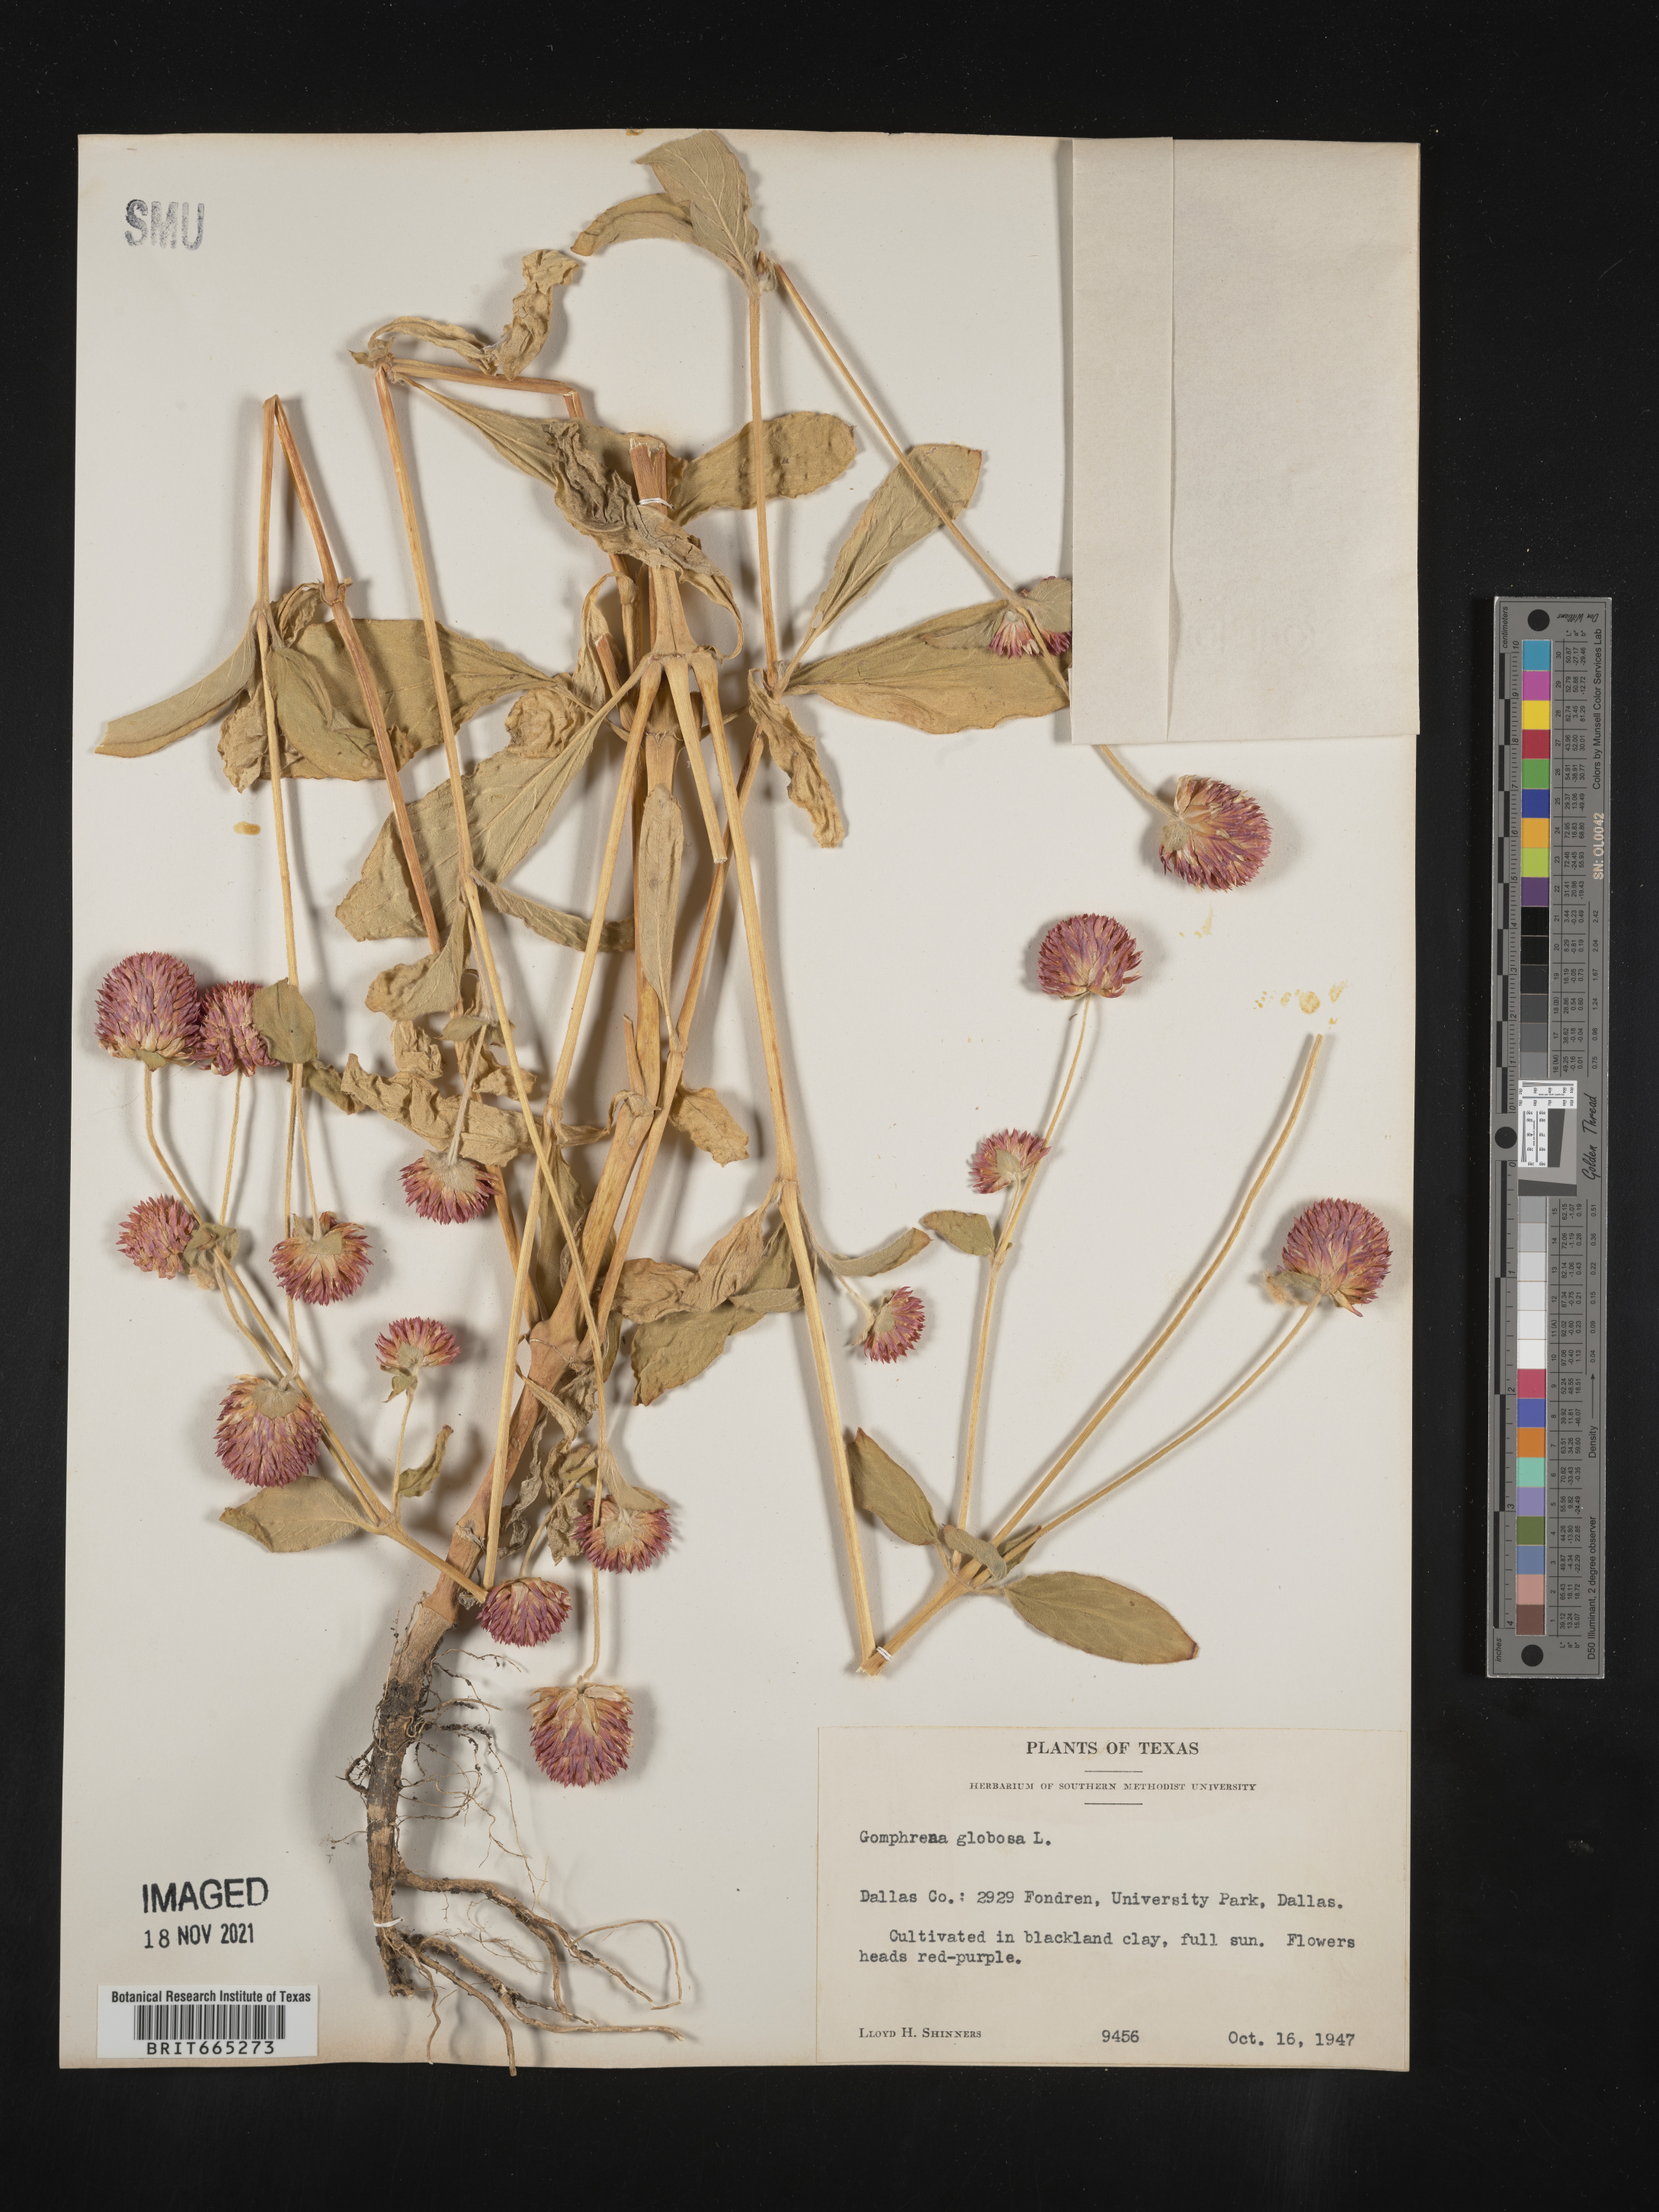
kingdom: Plantae
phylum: Tracheophyta
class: Magnoliopsida
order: Caryophyllales
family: Amaranthaceae
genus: Gomphrena
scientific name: Gomphrena
